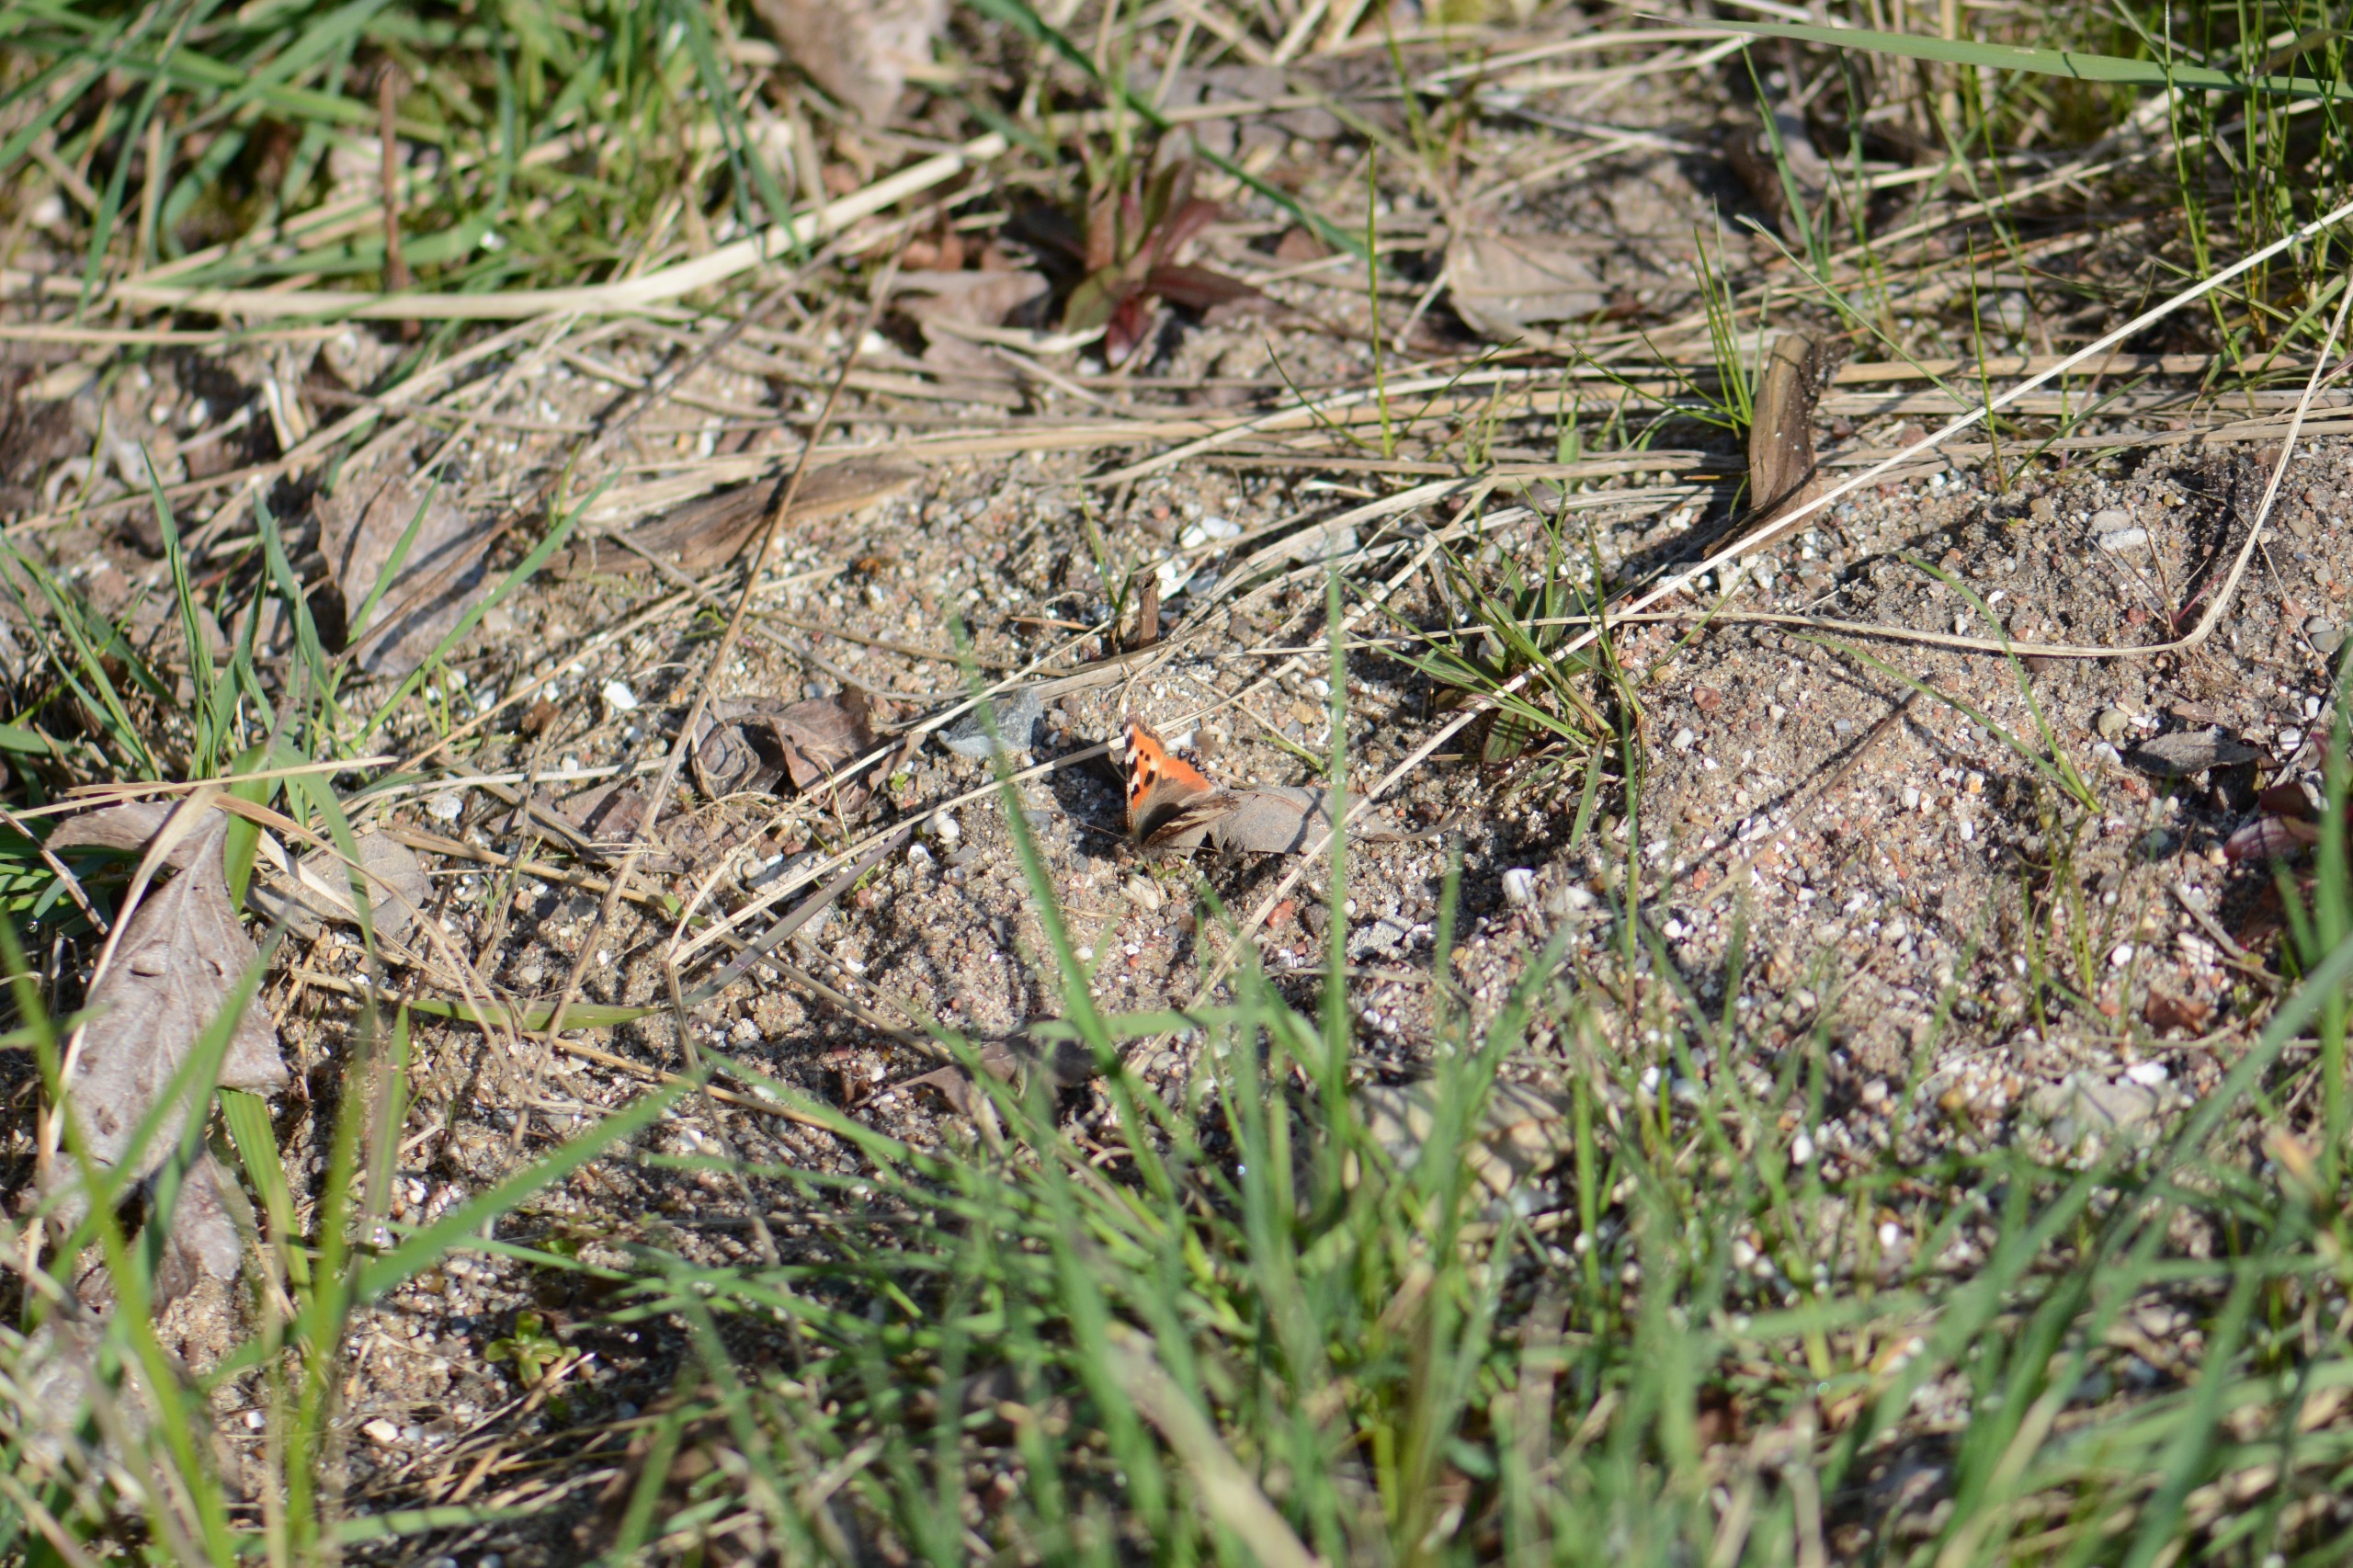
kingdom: Animalia
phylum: Arthropoda
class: Insecta
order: Lepidoptera
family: Nymphalidae
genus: Aglais
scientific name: Aglais urticae
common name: Nældens takvinge
